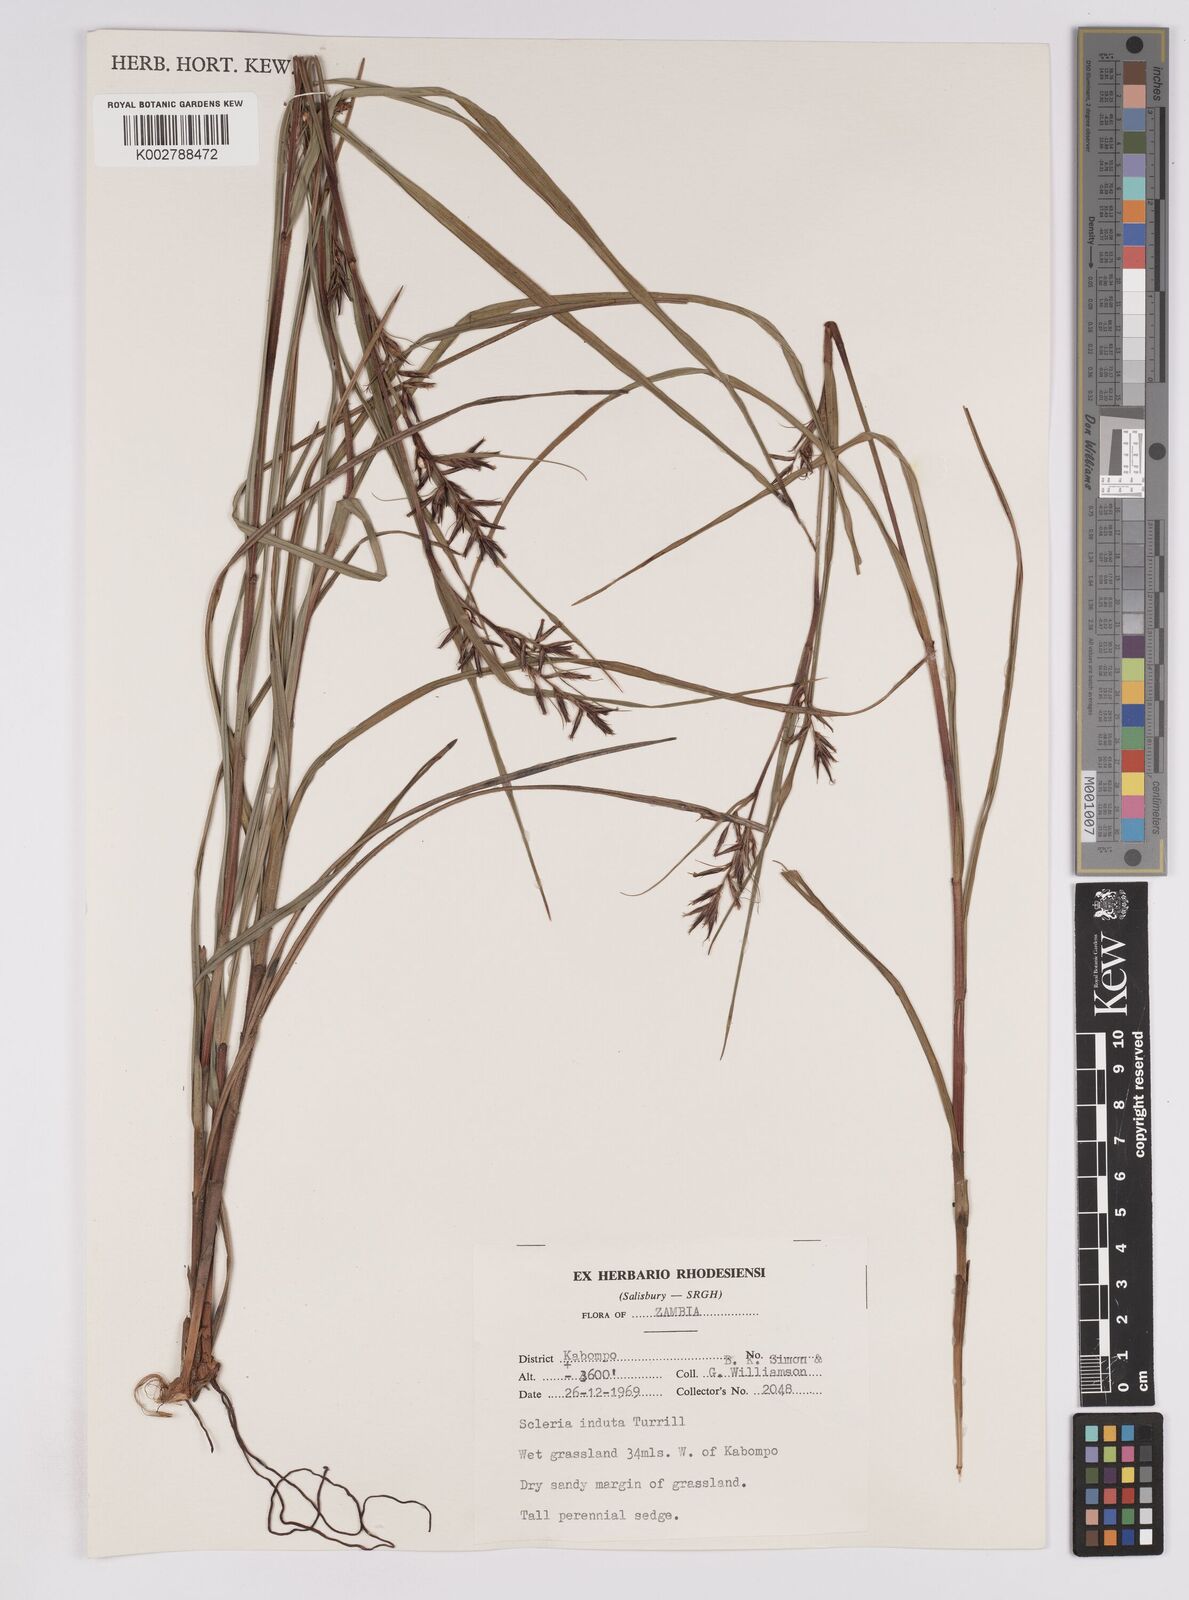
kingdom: Plantae
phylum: Tracheophyta
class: Liliopsida
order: Poales
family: Cyperaceae
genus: Scleria
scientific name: Scleria induta
